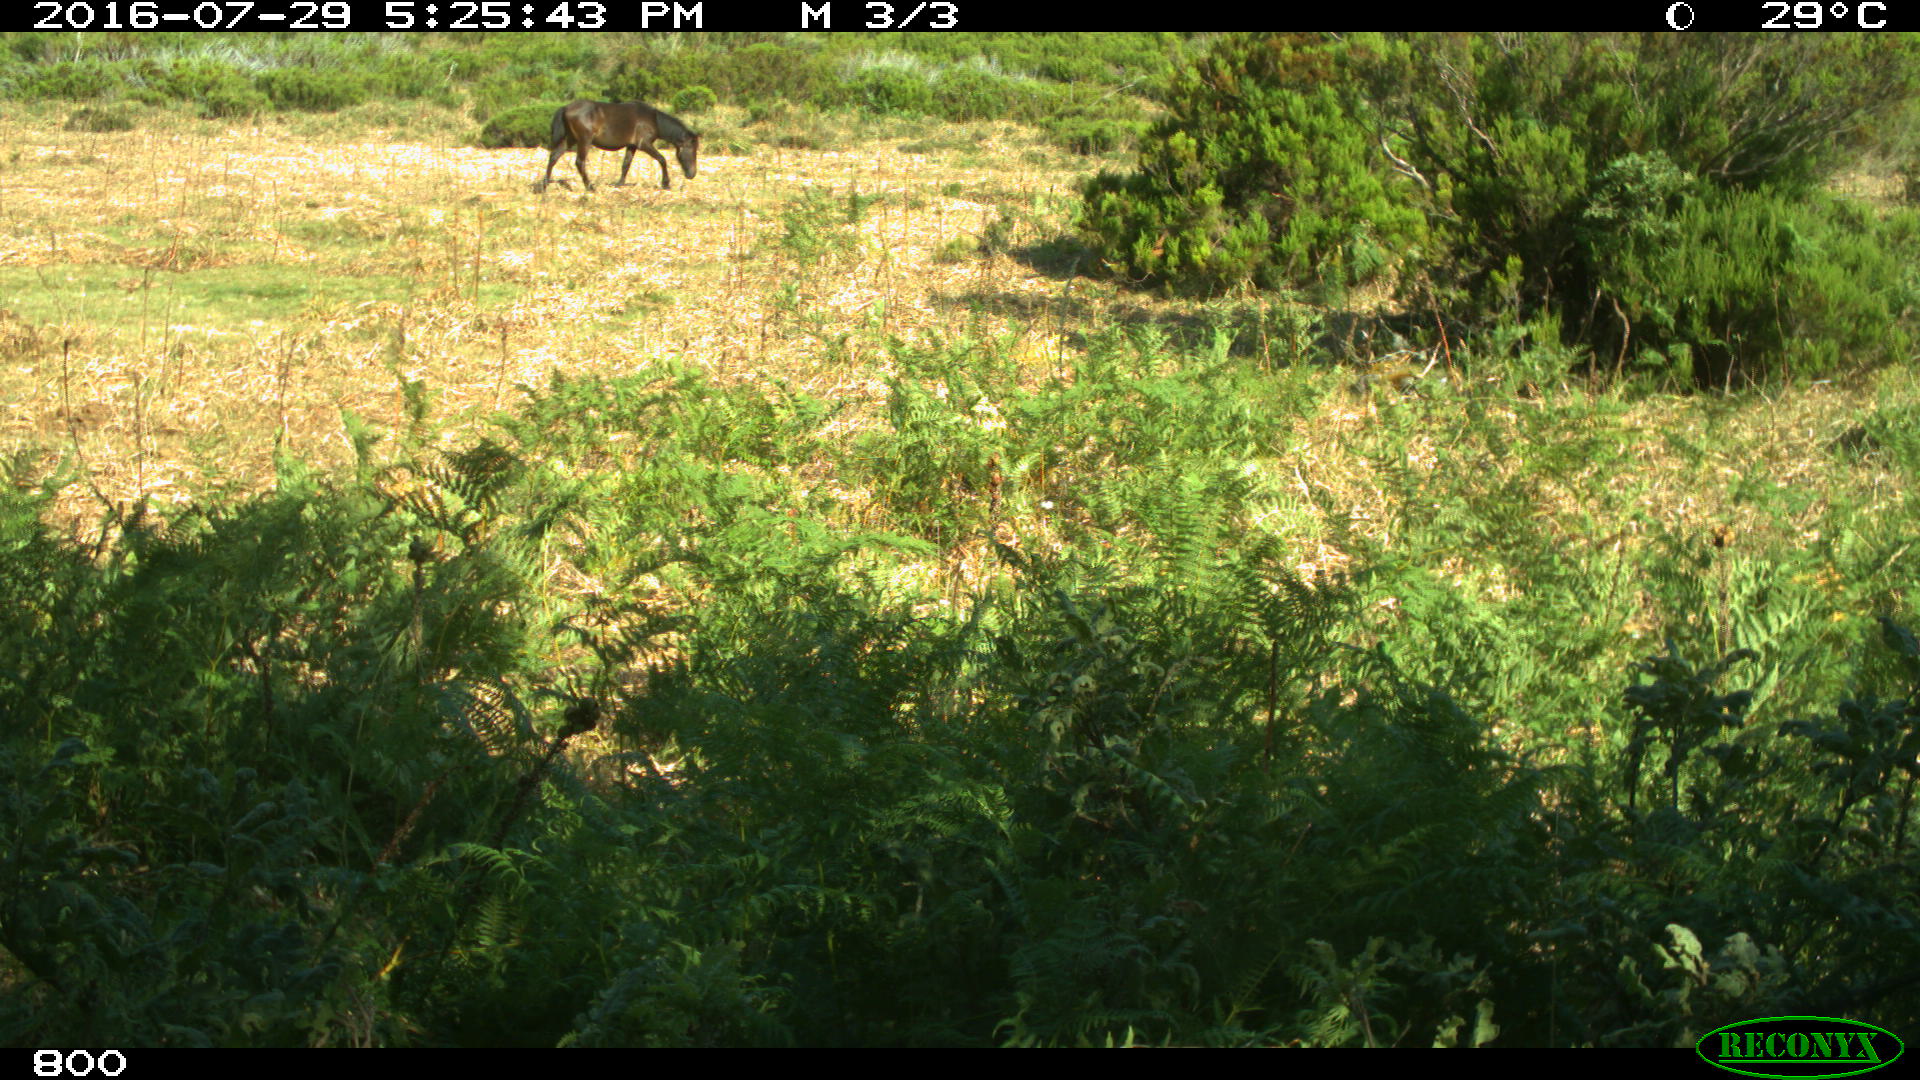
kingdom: Animalia
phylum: Chordata
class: Mammalia
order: Perissodactyla
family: Equidae
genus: Equus
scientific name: Equus caballus
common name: Horse
